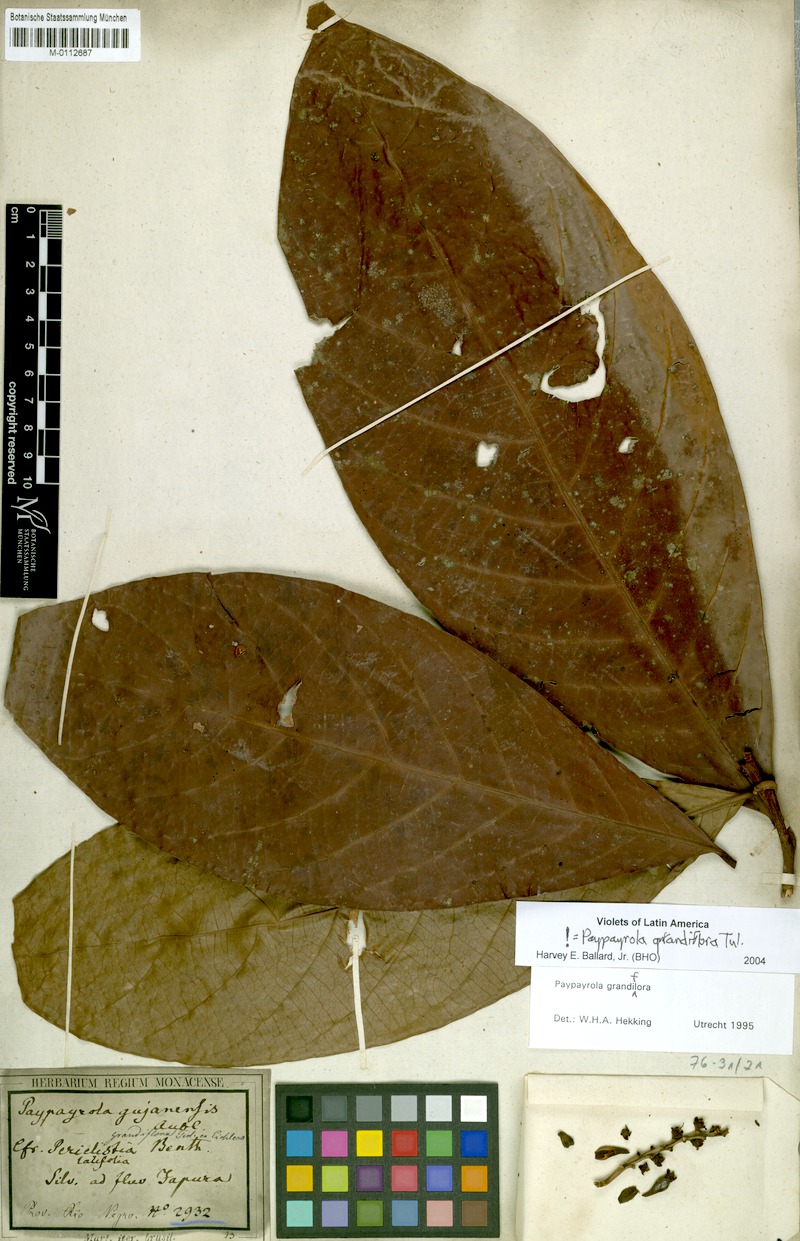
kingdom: Plantae
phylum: Tracheophyta
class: Magnoliopsida
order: Malpighiales
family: Violaceae
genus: Paypayrola
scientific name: Paypayrola grandiflora
